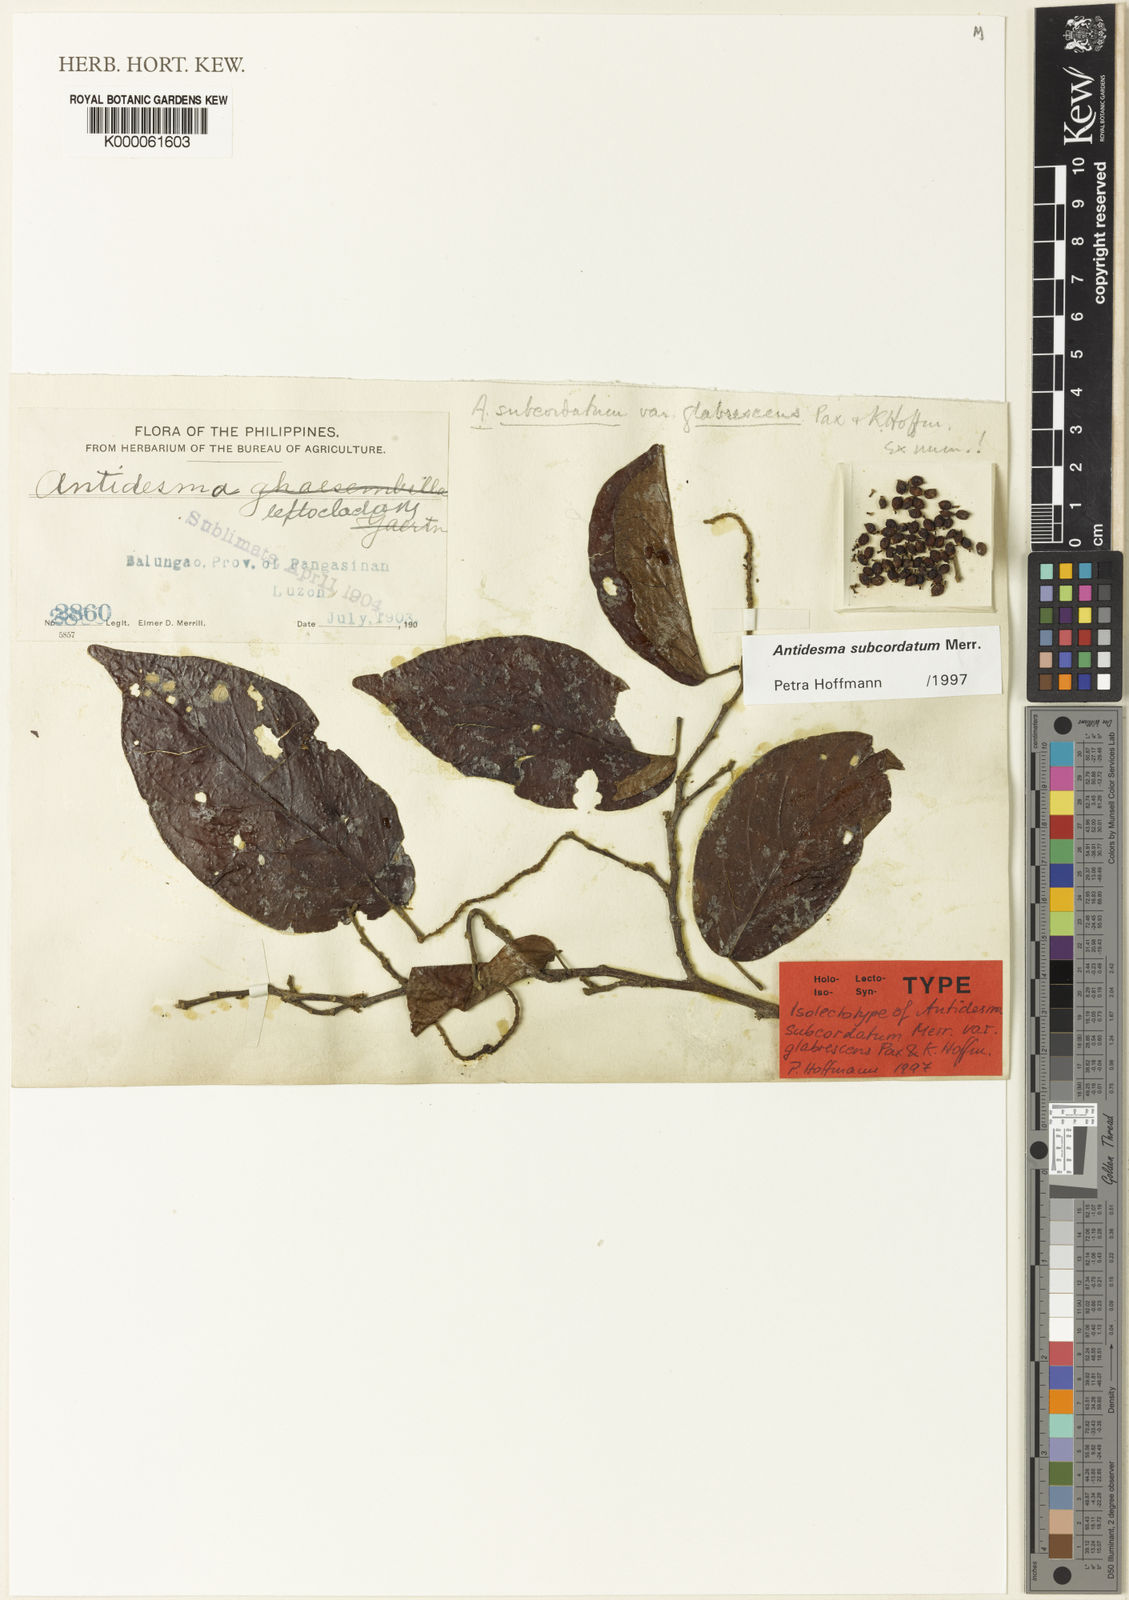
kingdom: Plantae
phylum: Tracheophyta
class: Magnoliopsida
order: Malpighiales
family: Phyllanthaceae
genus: Antidesma
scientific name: Antidesma tomentosum
